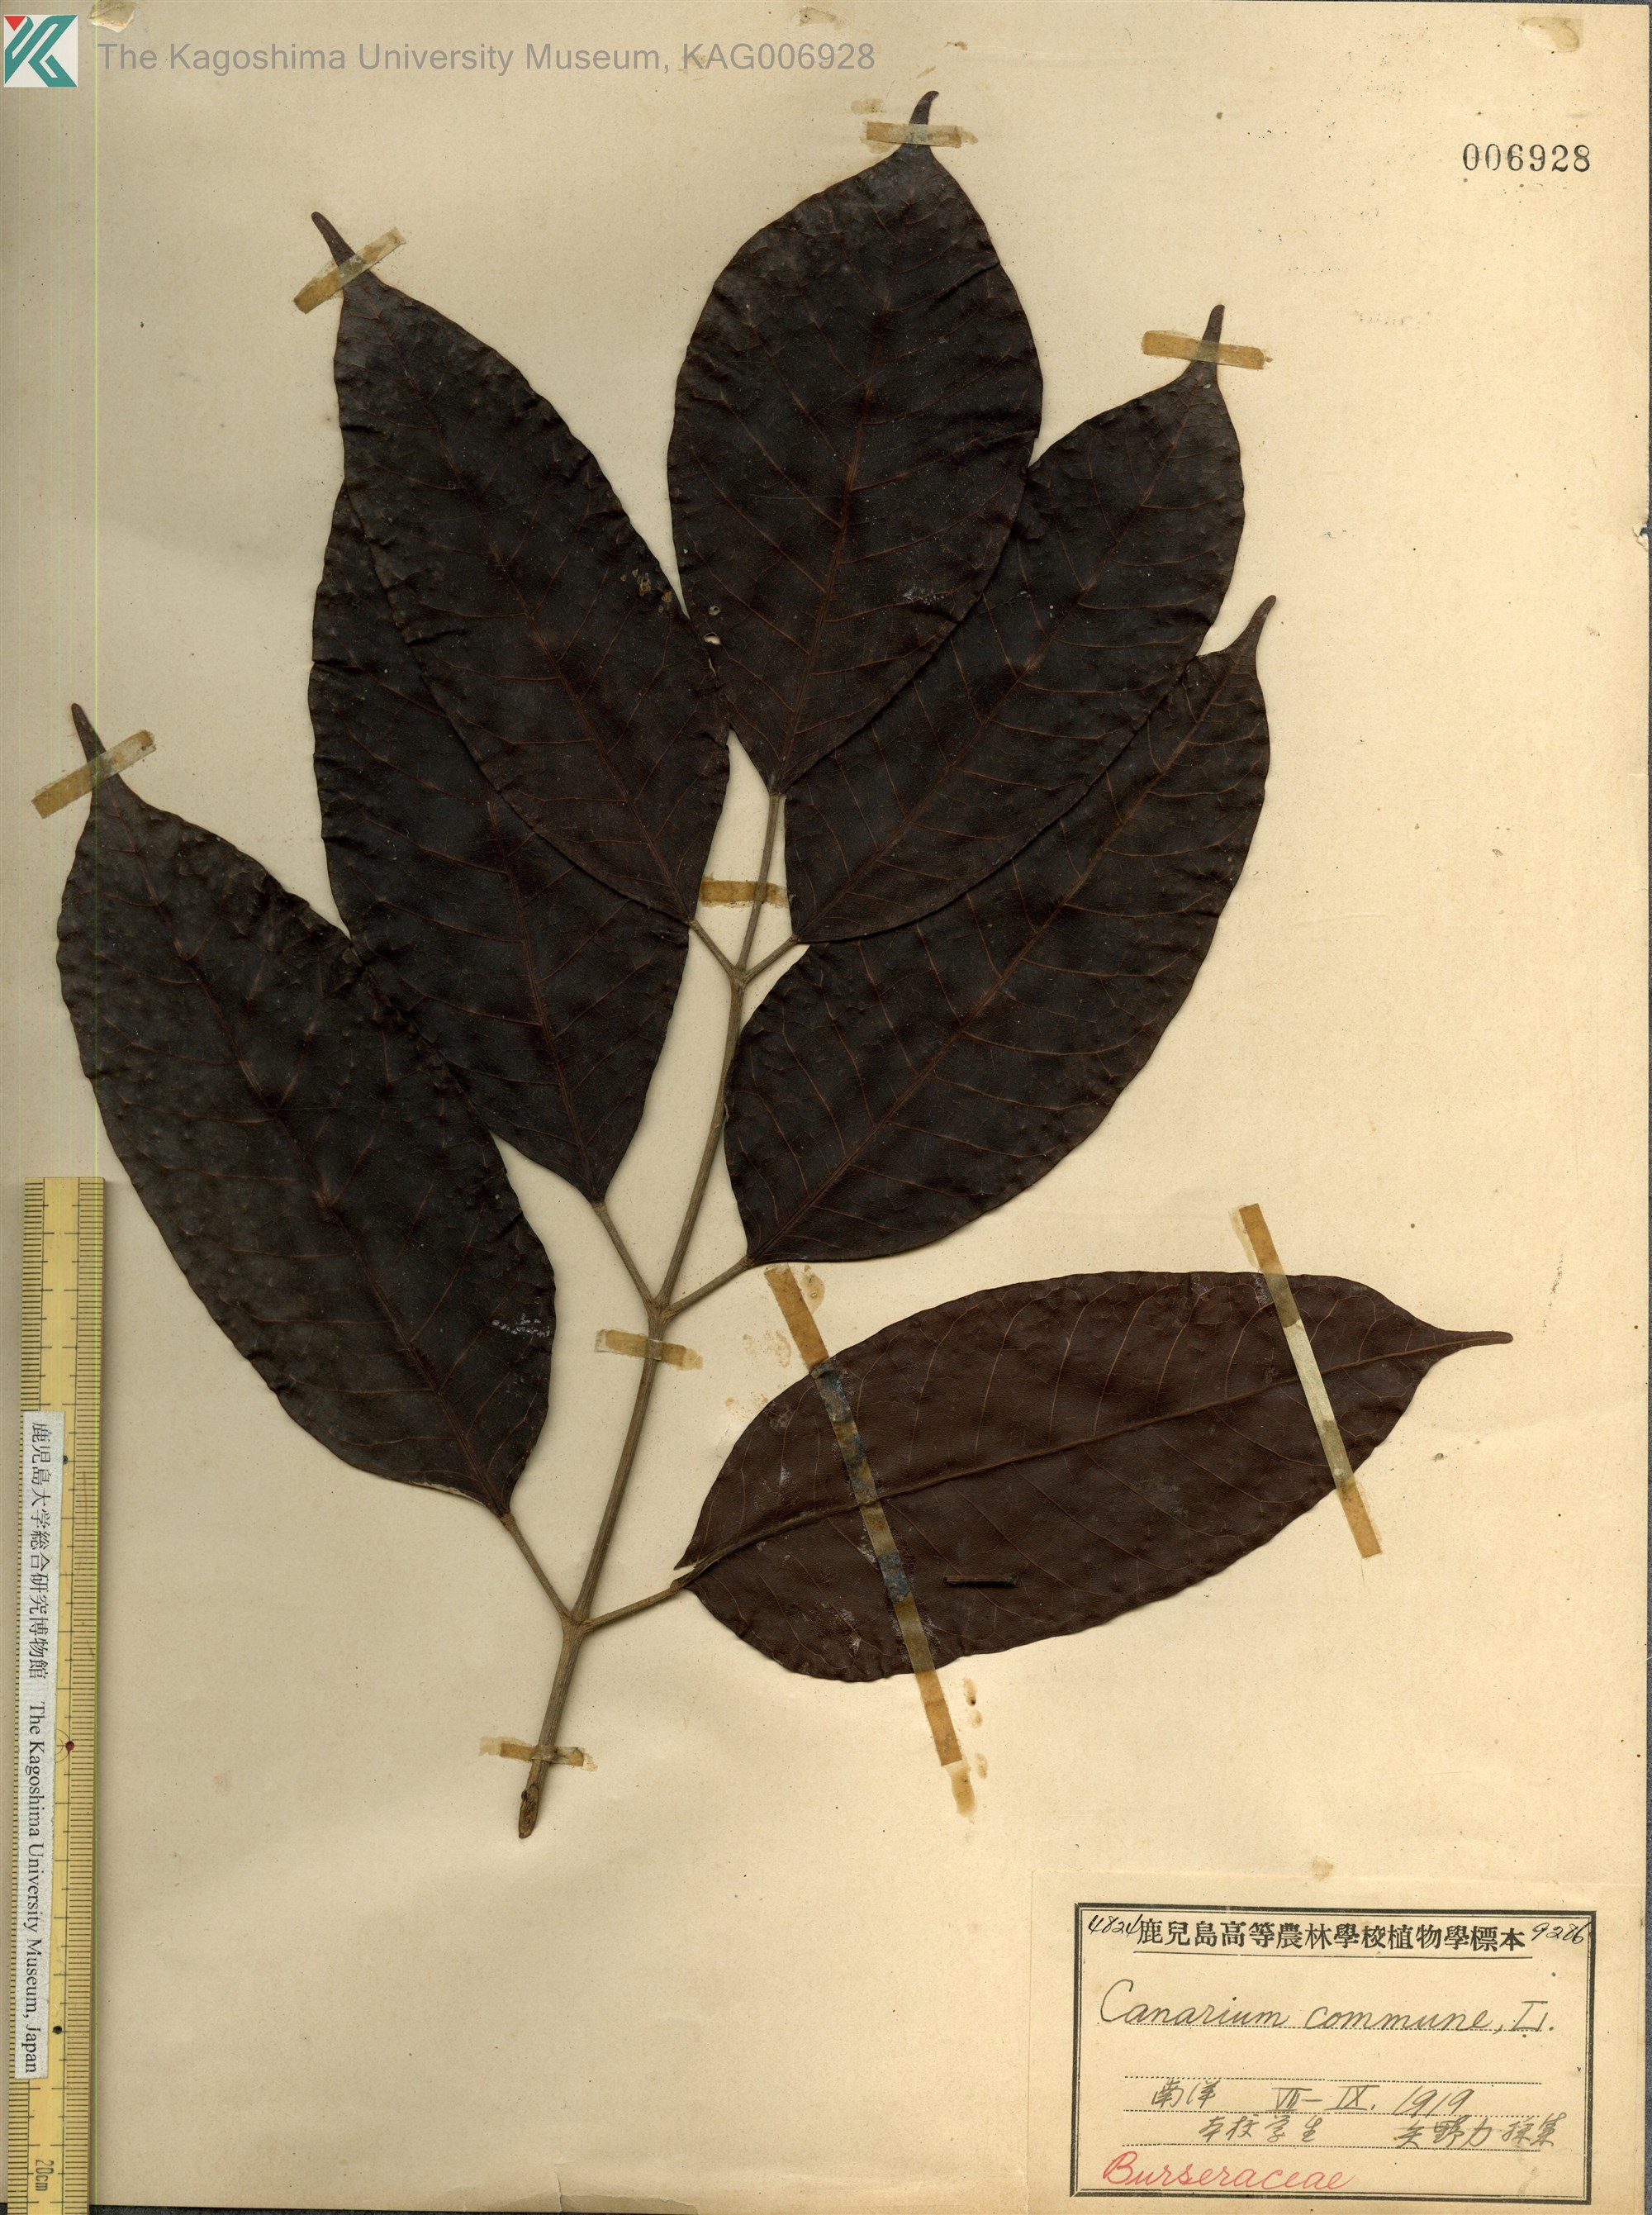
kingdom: Plantae
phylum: Tracheophyta
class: Magnoliopsida
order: Sapindales
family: Burseraceae
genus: Canarium
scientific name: Canarium indicum
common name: Canarium-nut
